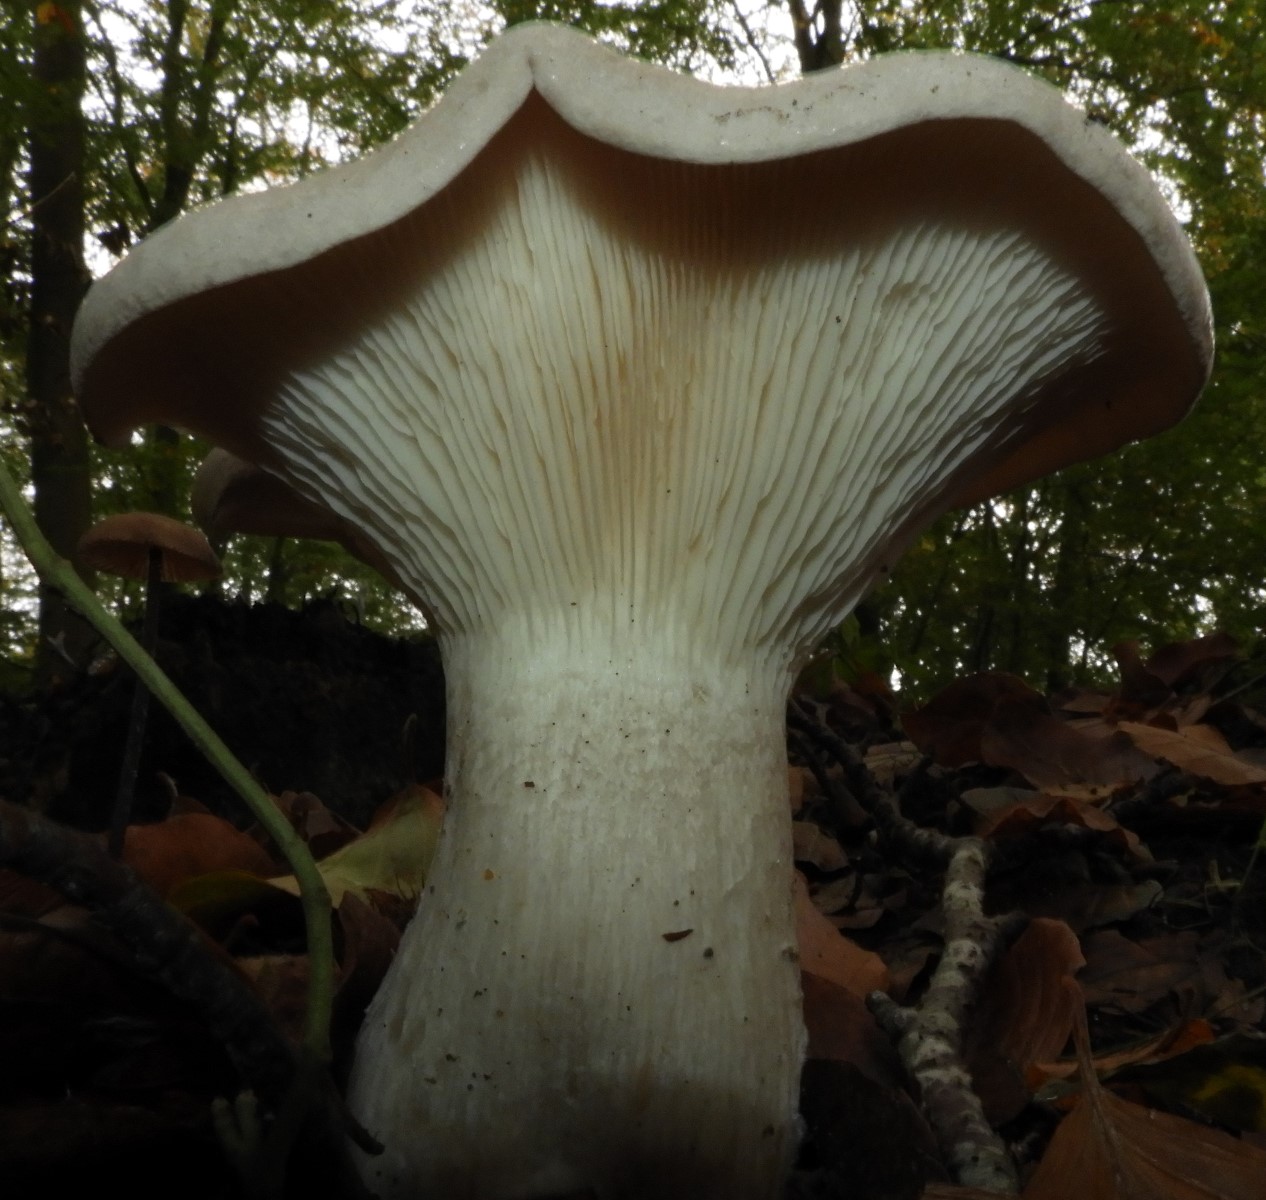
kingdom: Fungi
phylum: Basidiomycota
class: Agaricomycetes
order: Agaricales
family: Tricholomataceae
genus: Clitocybe
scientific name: Clitocybe nebularis
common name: tåge-tragthat
